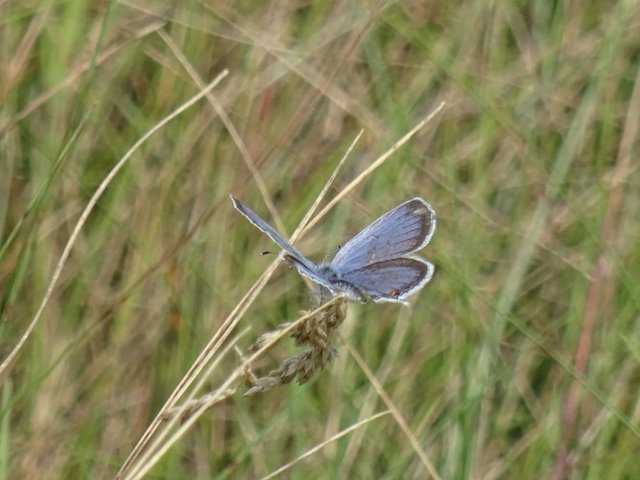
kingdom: Animalia
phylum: Arthropoda
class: Insecta
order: Lepidoptera
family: Lycaenidae
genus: Elkalyce
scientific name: Elkalyce comyntas
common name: Eastern Tailed-Blue
